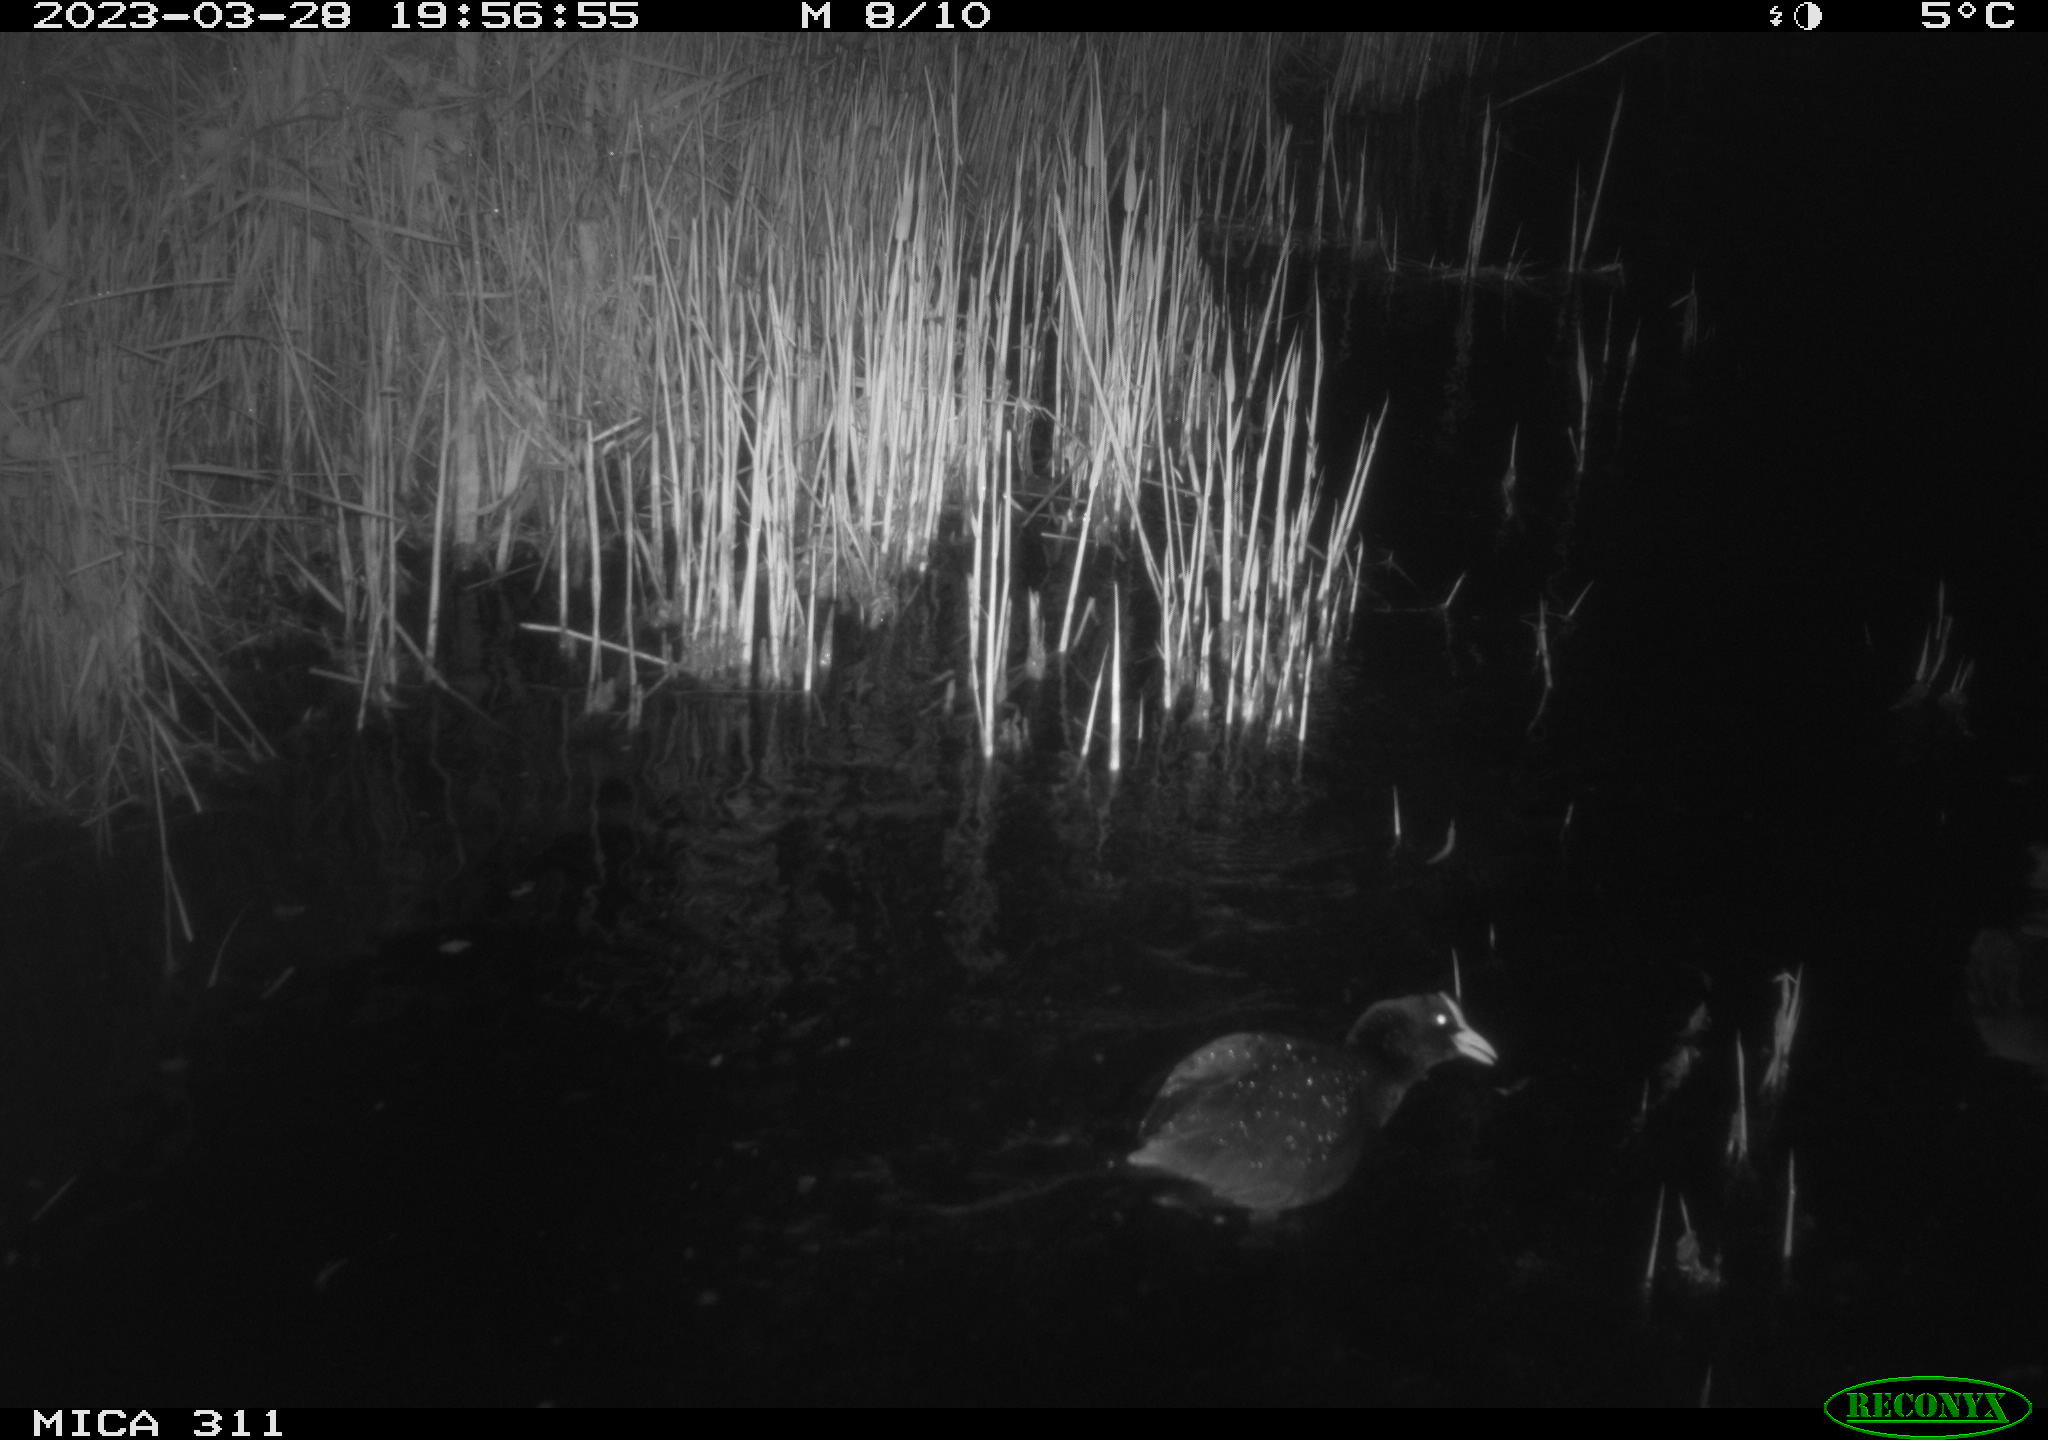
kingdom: Animalia
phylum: Chordata
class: Aves
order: Gruiformes
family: Rallidae
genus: Gallinula
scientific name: Gallinula chloropus
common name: Common moorhen
